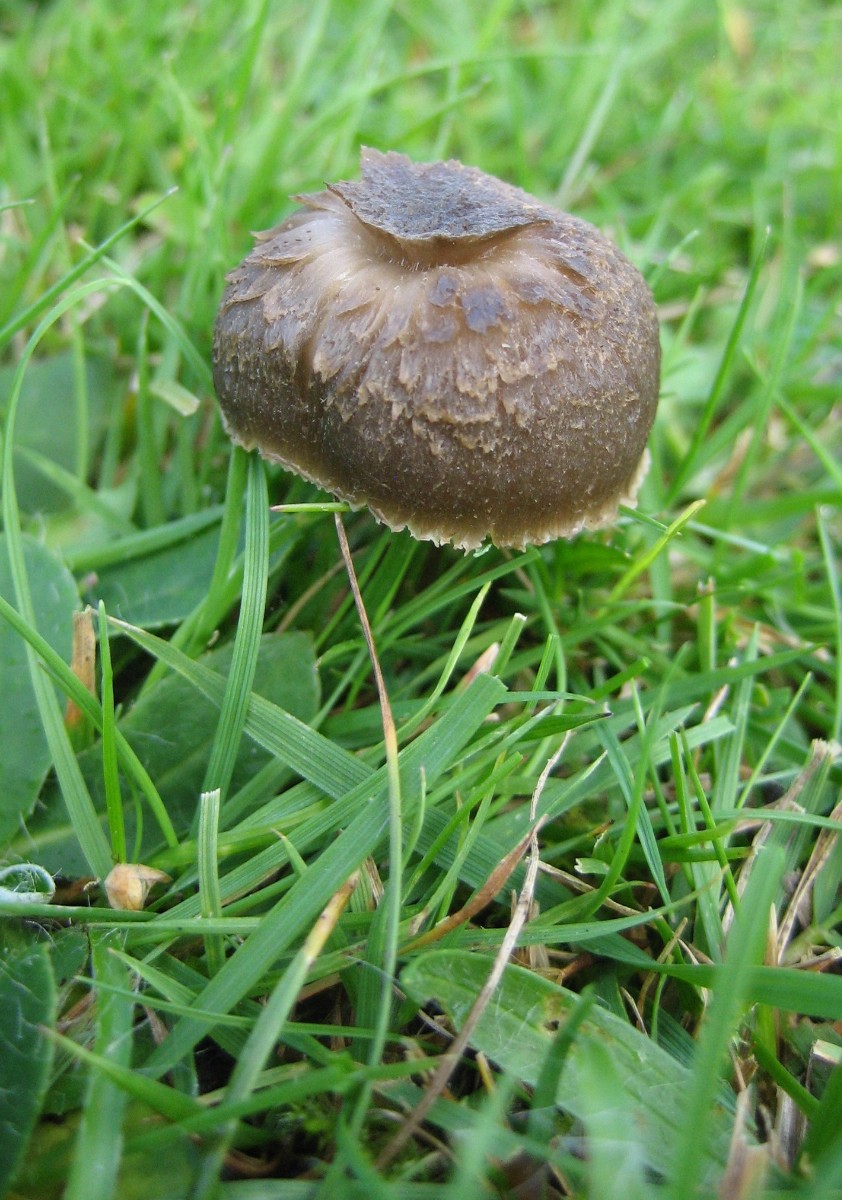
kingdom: Fungi
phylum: Basidiomycota
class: Agaricomycetes
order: Agaricales
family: Hygrophoraceae
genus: Neohygrocybe
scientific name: Neohygrocybe nitrata
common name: stinkende vokshat
